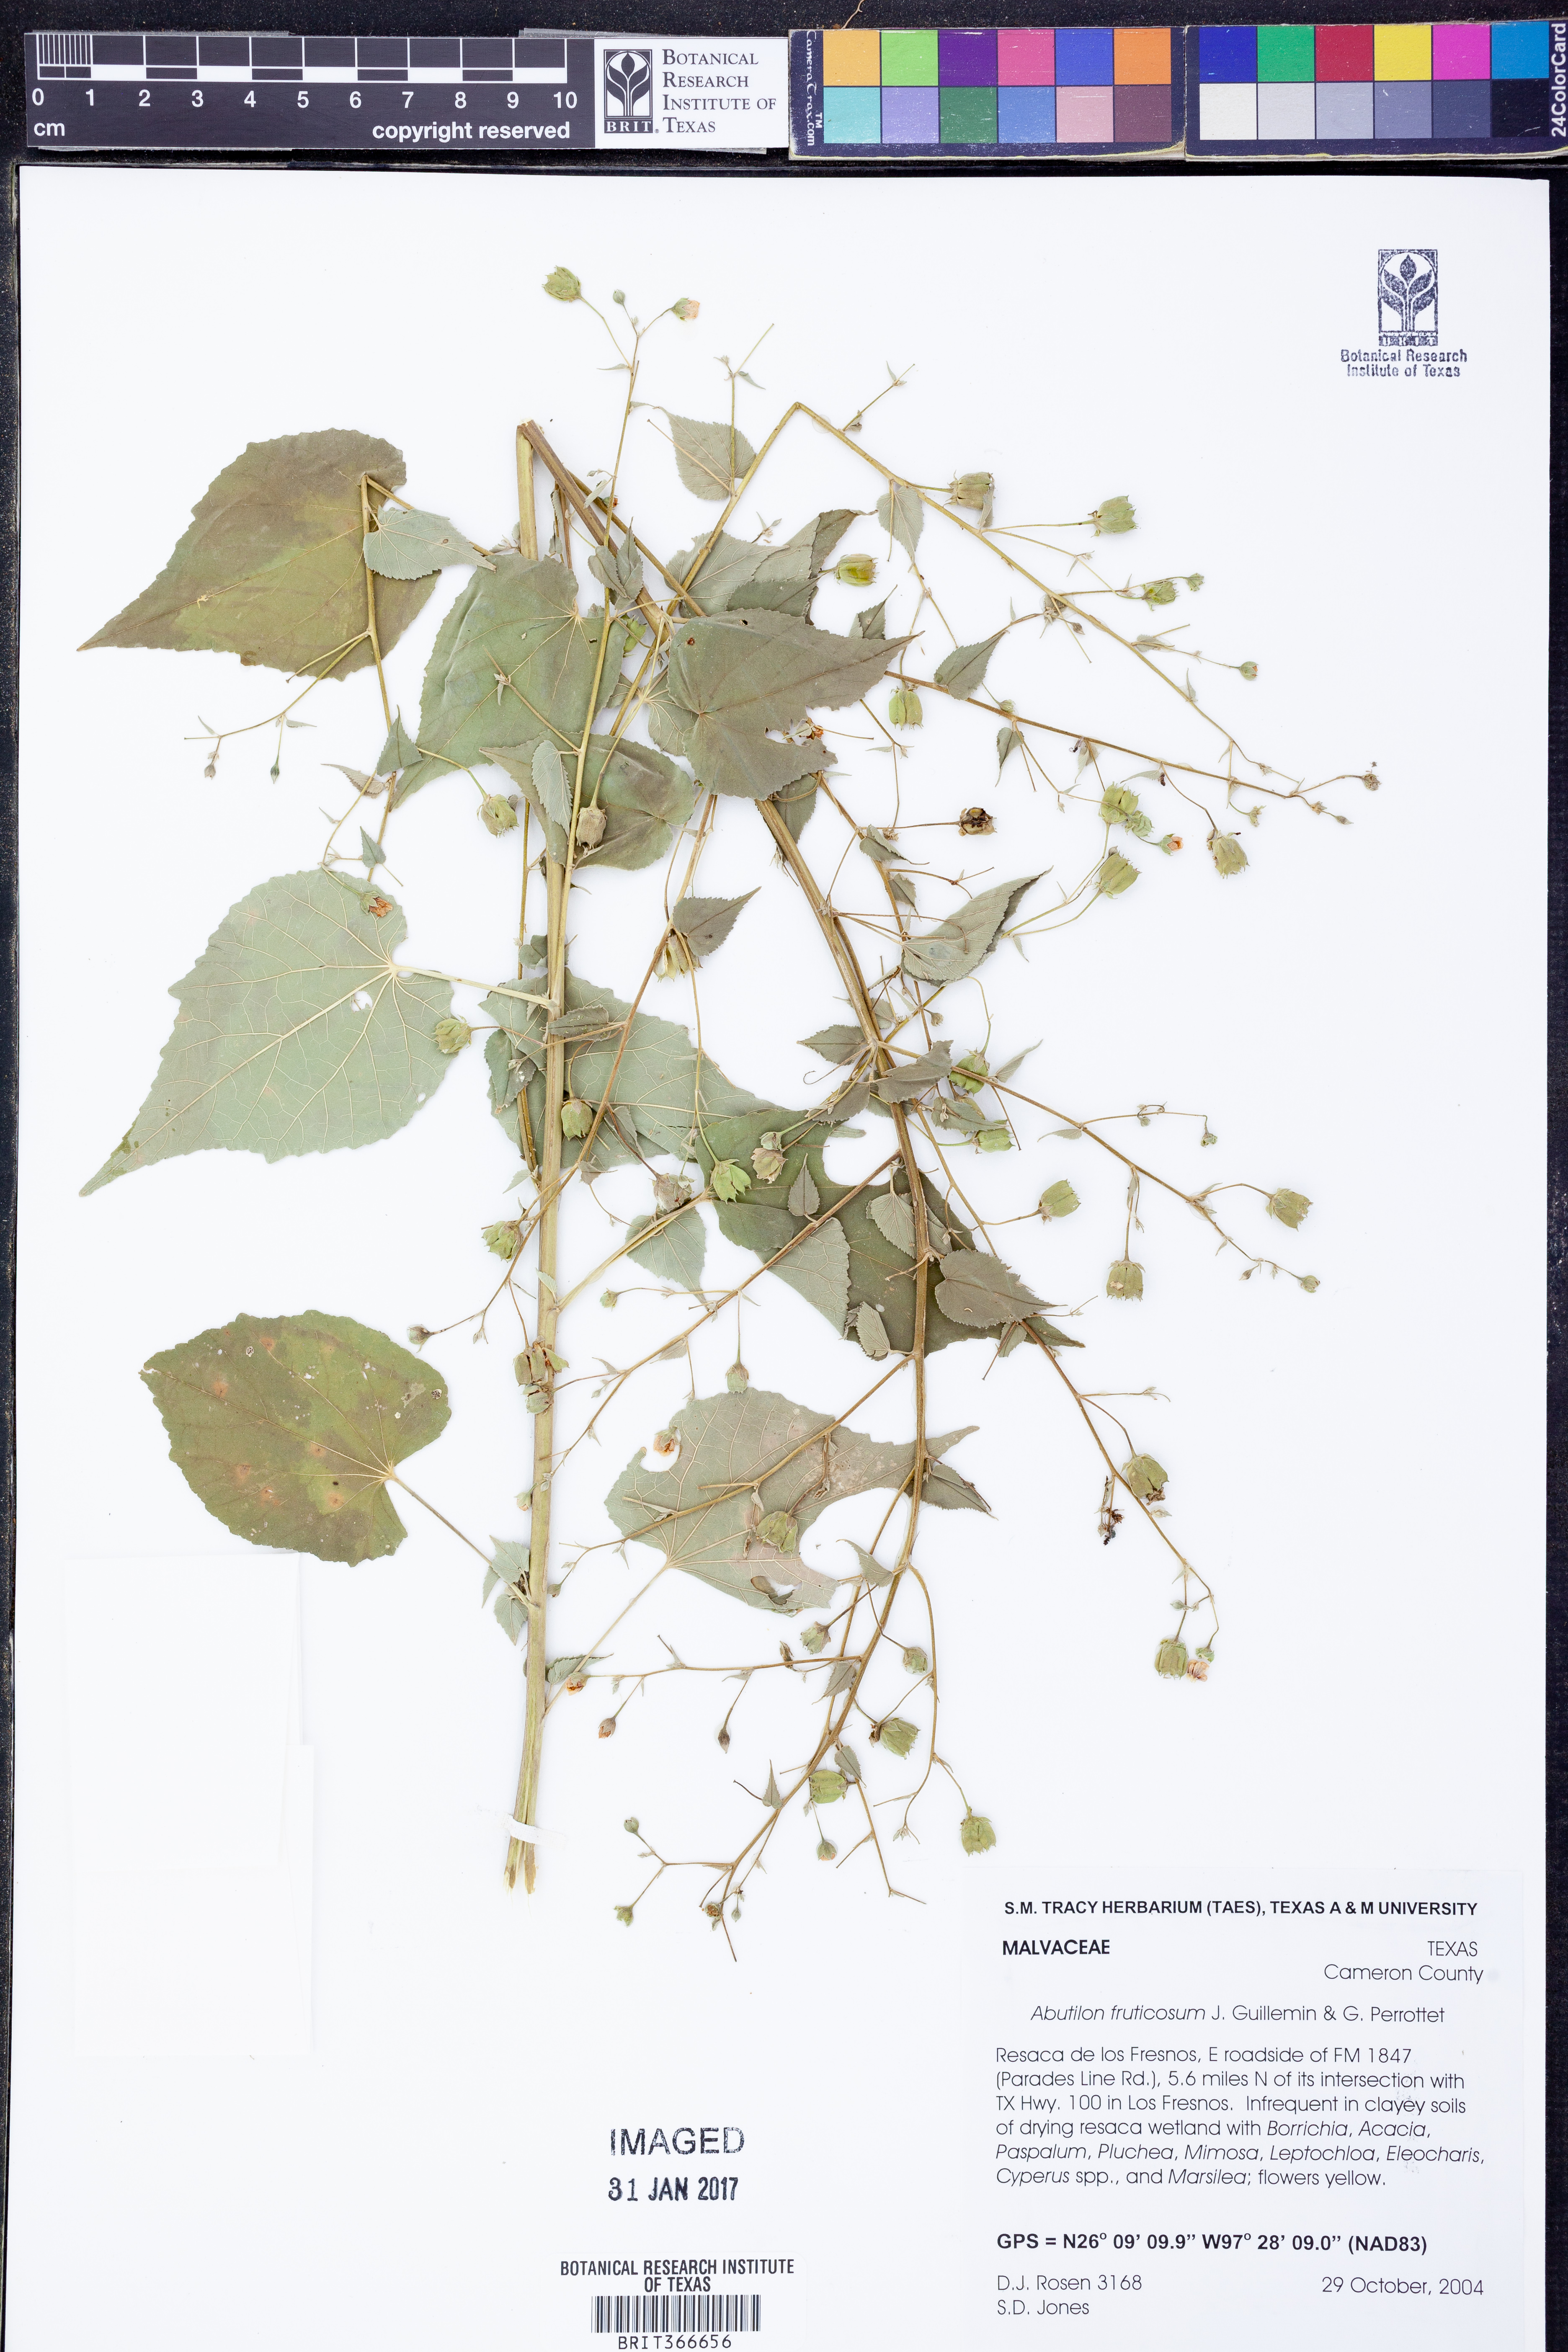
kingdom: Plantae
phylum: Tracheophyta
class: Magnoliopsida
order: Malvales
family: Malvaceae
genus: Abutilon
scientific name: Abutilon trisulcatum
